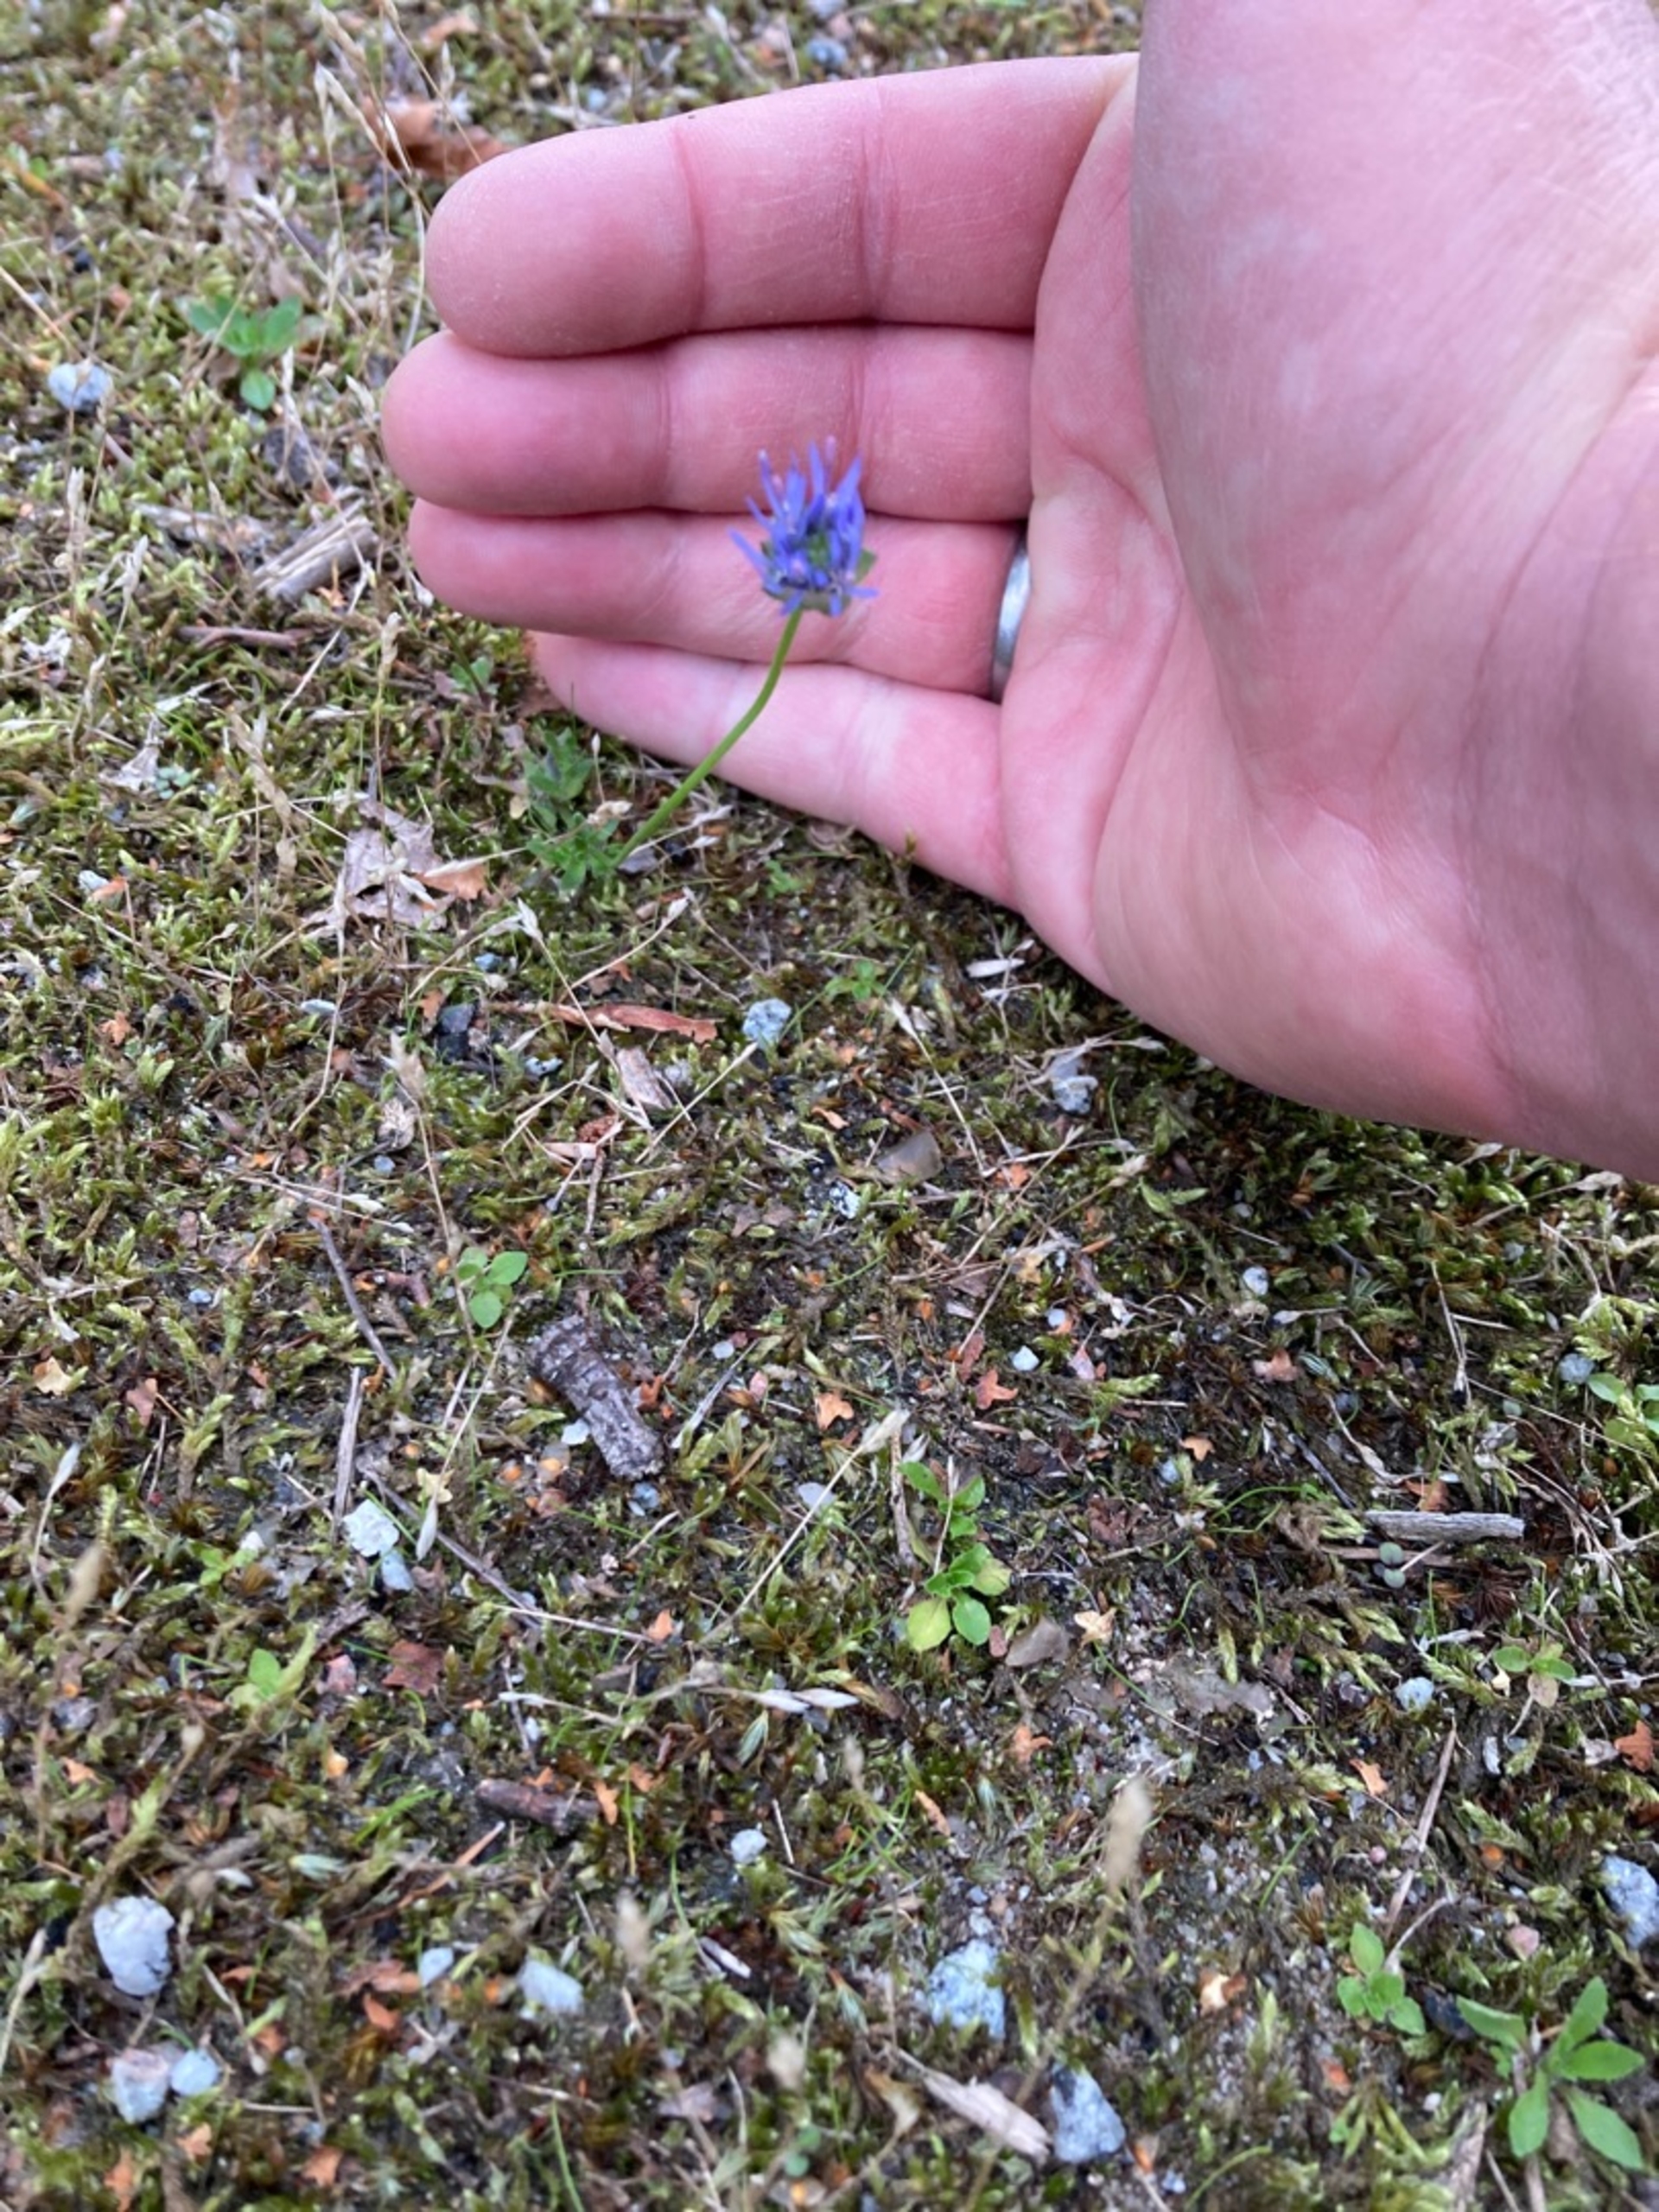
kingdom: Plantae
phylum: Tracheophyta
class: Magnoliopsida
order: Asterales
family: Campanulaceae
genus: Jasione
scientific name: Jasione montana
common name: Blåmunke
